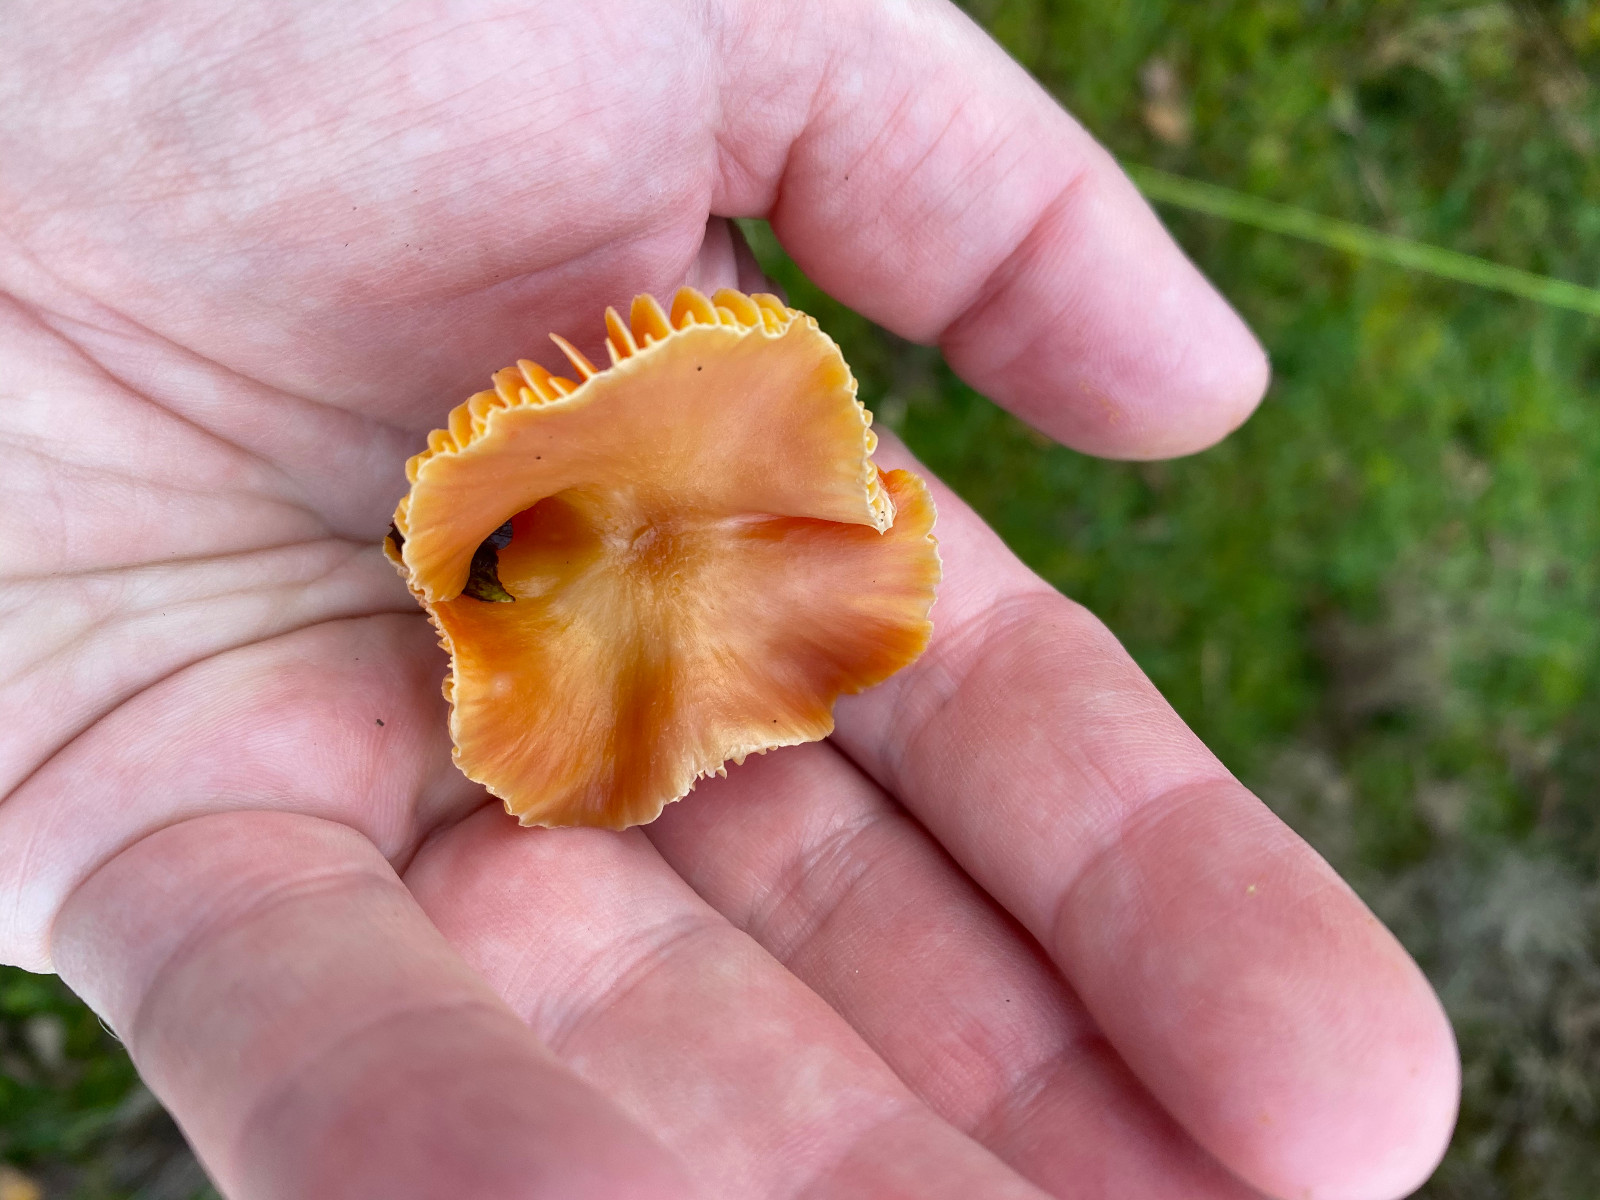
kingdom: Fungi
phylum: Basidiomycota
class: Agaricomycetes
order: Agaricales
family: Hygrophoraceae
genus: Hygrocybe
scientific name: Hygrocybe
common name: vokshat
